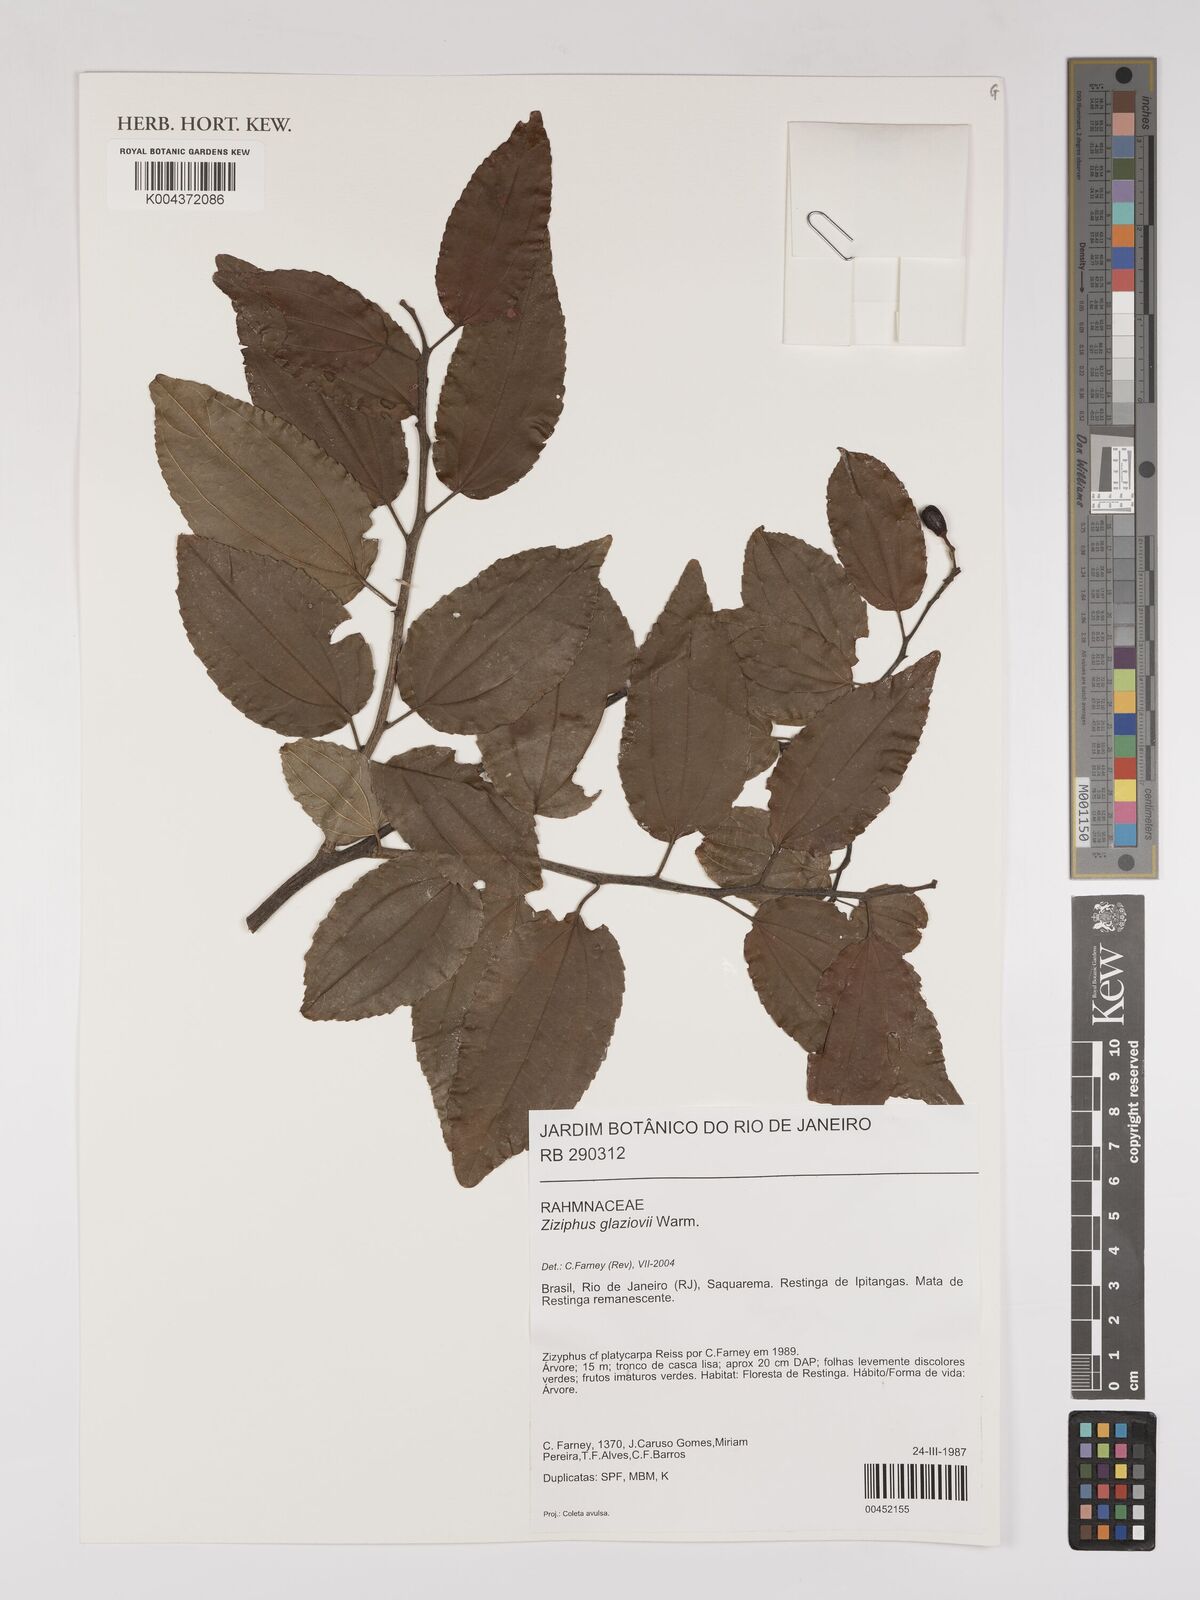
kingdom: Plantae
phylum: Tracheophyta
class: Magnoliopsida
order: Rosales
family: Rhamnaceae
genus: Sarcomphalus
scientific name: Sarcomphalus glaziovii
